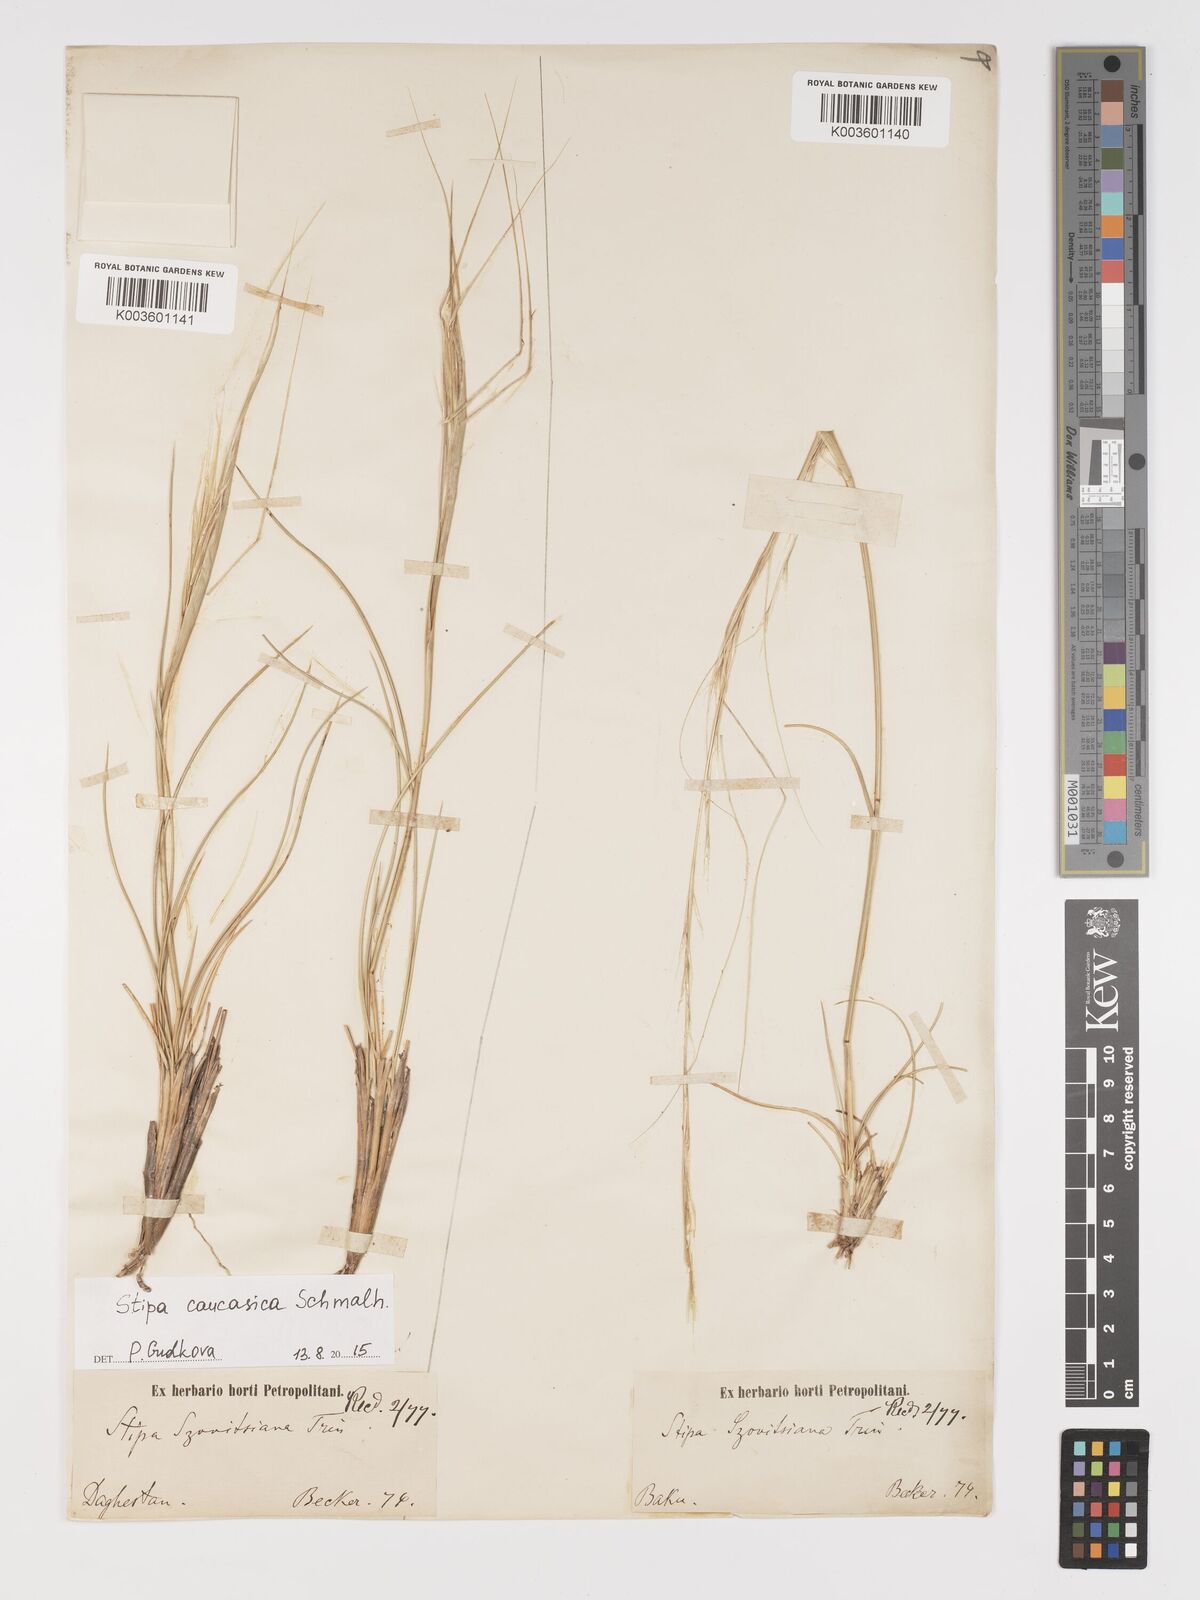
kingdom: Plantae
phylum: Tracheophyta
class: Liliopsida
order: Poales
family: Poaceae
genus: Stipa
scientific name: Stipa arabica
